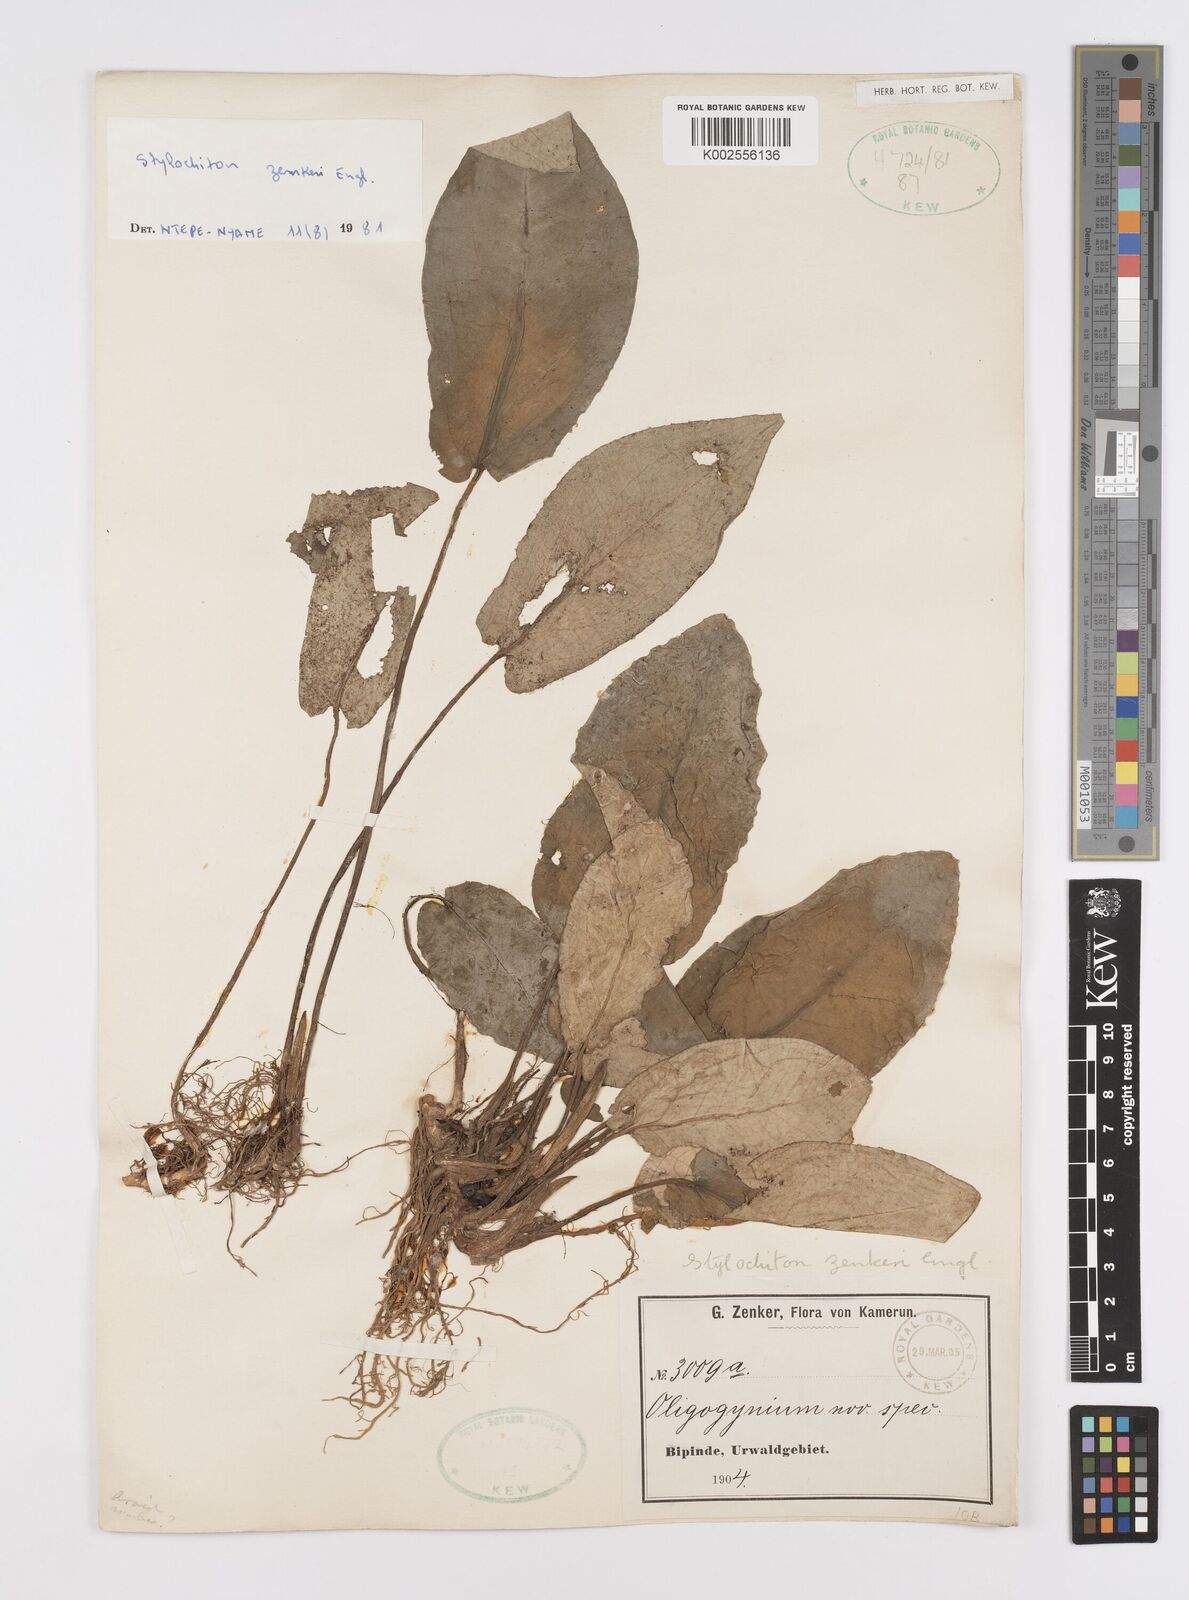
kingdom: Plantae
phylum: Tracheophyta
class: Liliopsida
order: Alismatales
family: Araceae
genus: Stylochaeton
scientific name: Stylochaeton zenkeri
